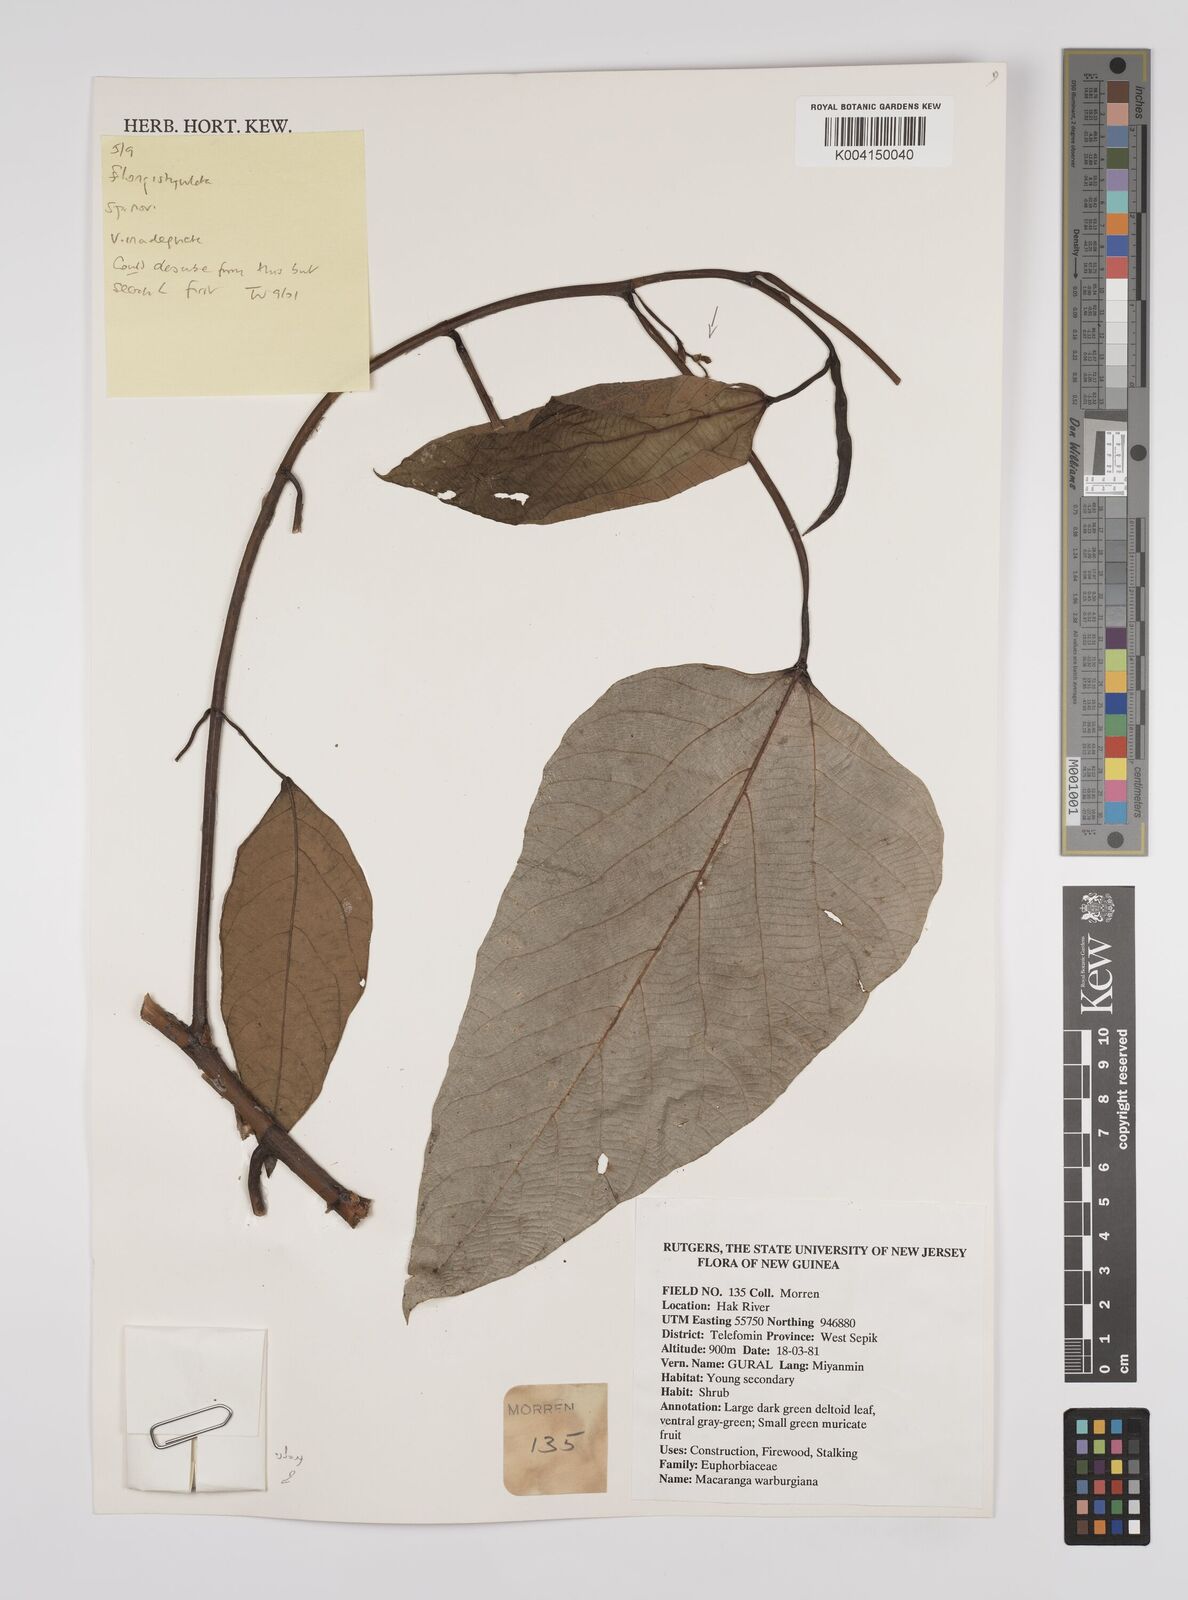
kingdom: Plantae
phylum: Tracheophyta
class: Magnoliopsida
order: Malpighiales
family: Euphorbiaceae
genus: Macaranga
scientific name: Macaranga
